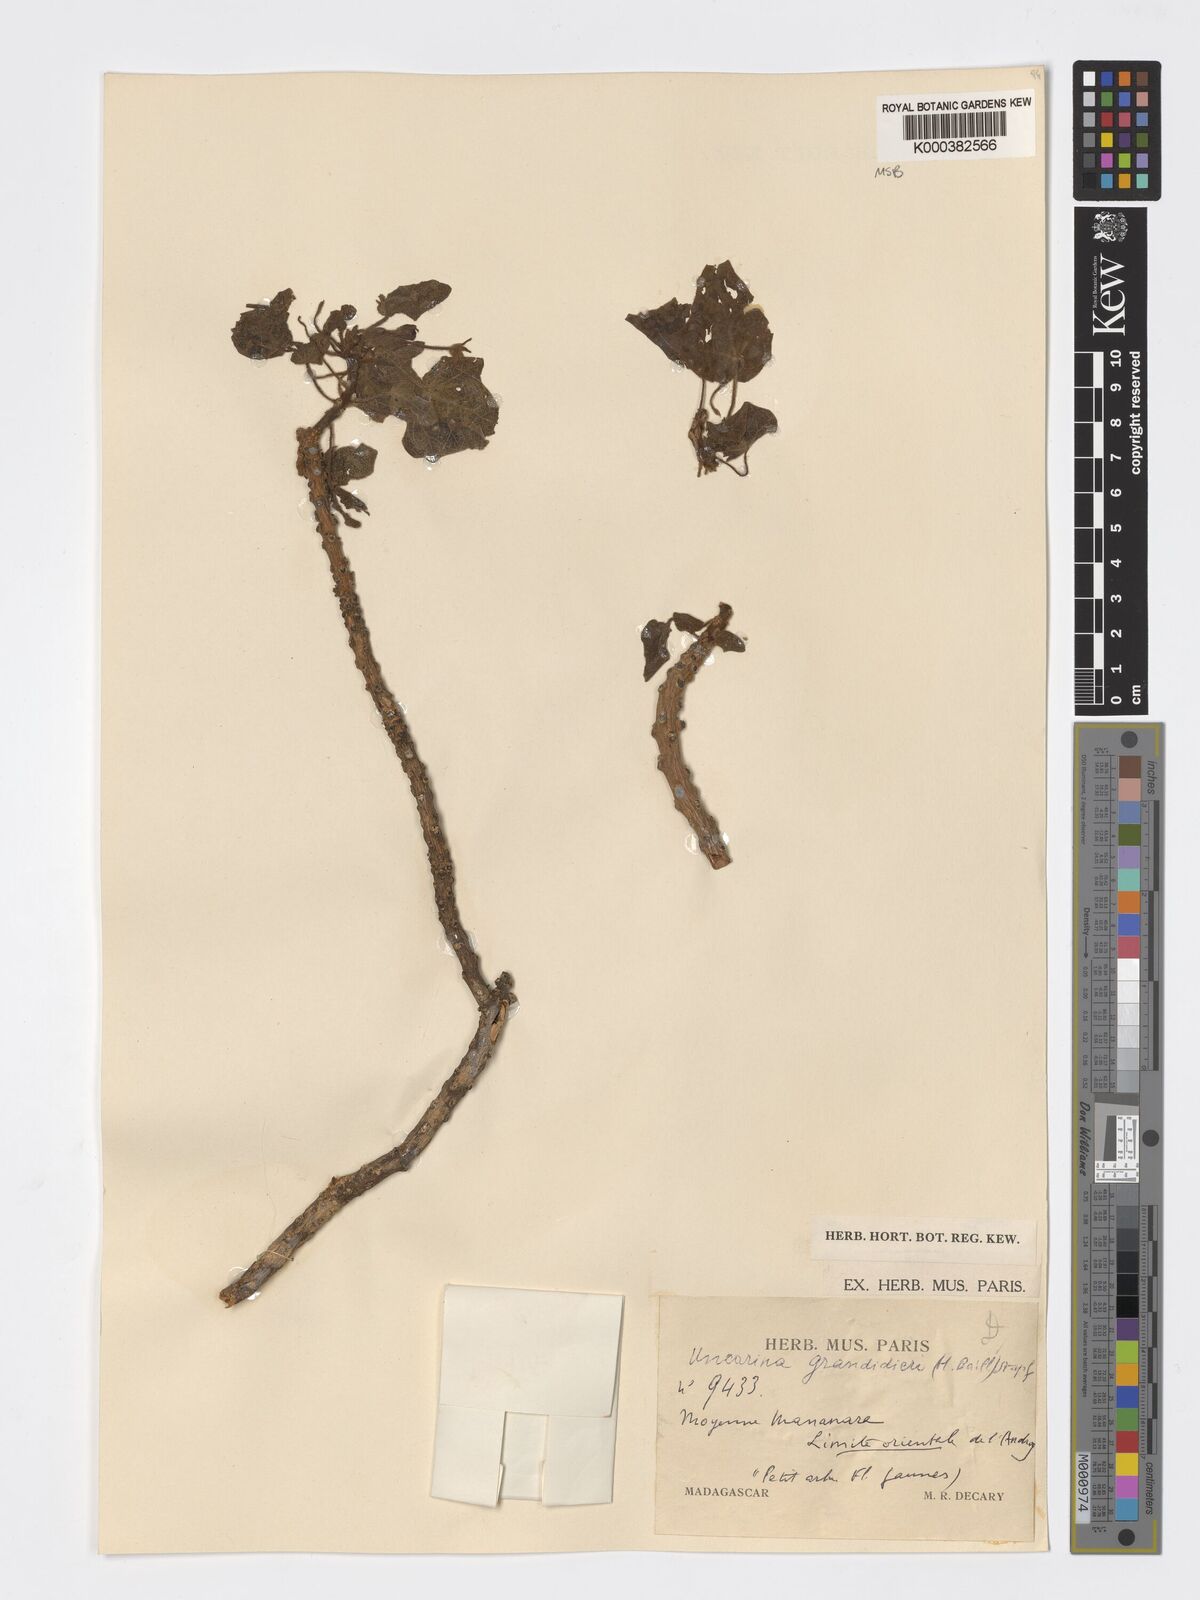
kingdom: Plantae
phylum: Tracheophyta
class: Magnoliopsida
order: Lamiales
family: Pedaliaceae
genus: Uncarina
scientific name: Uncarina
